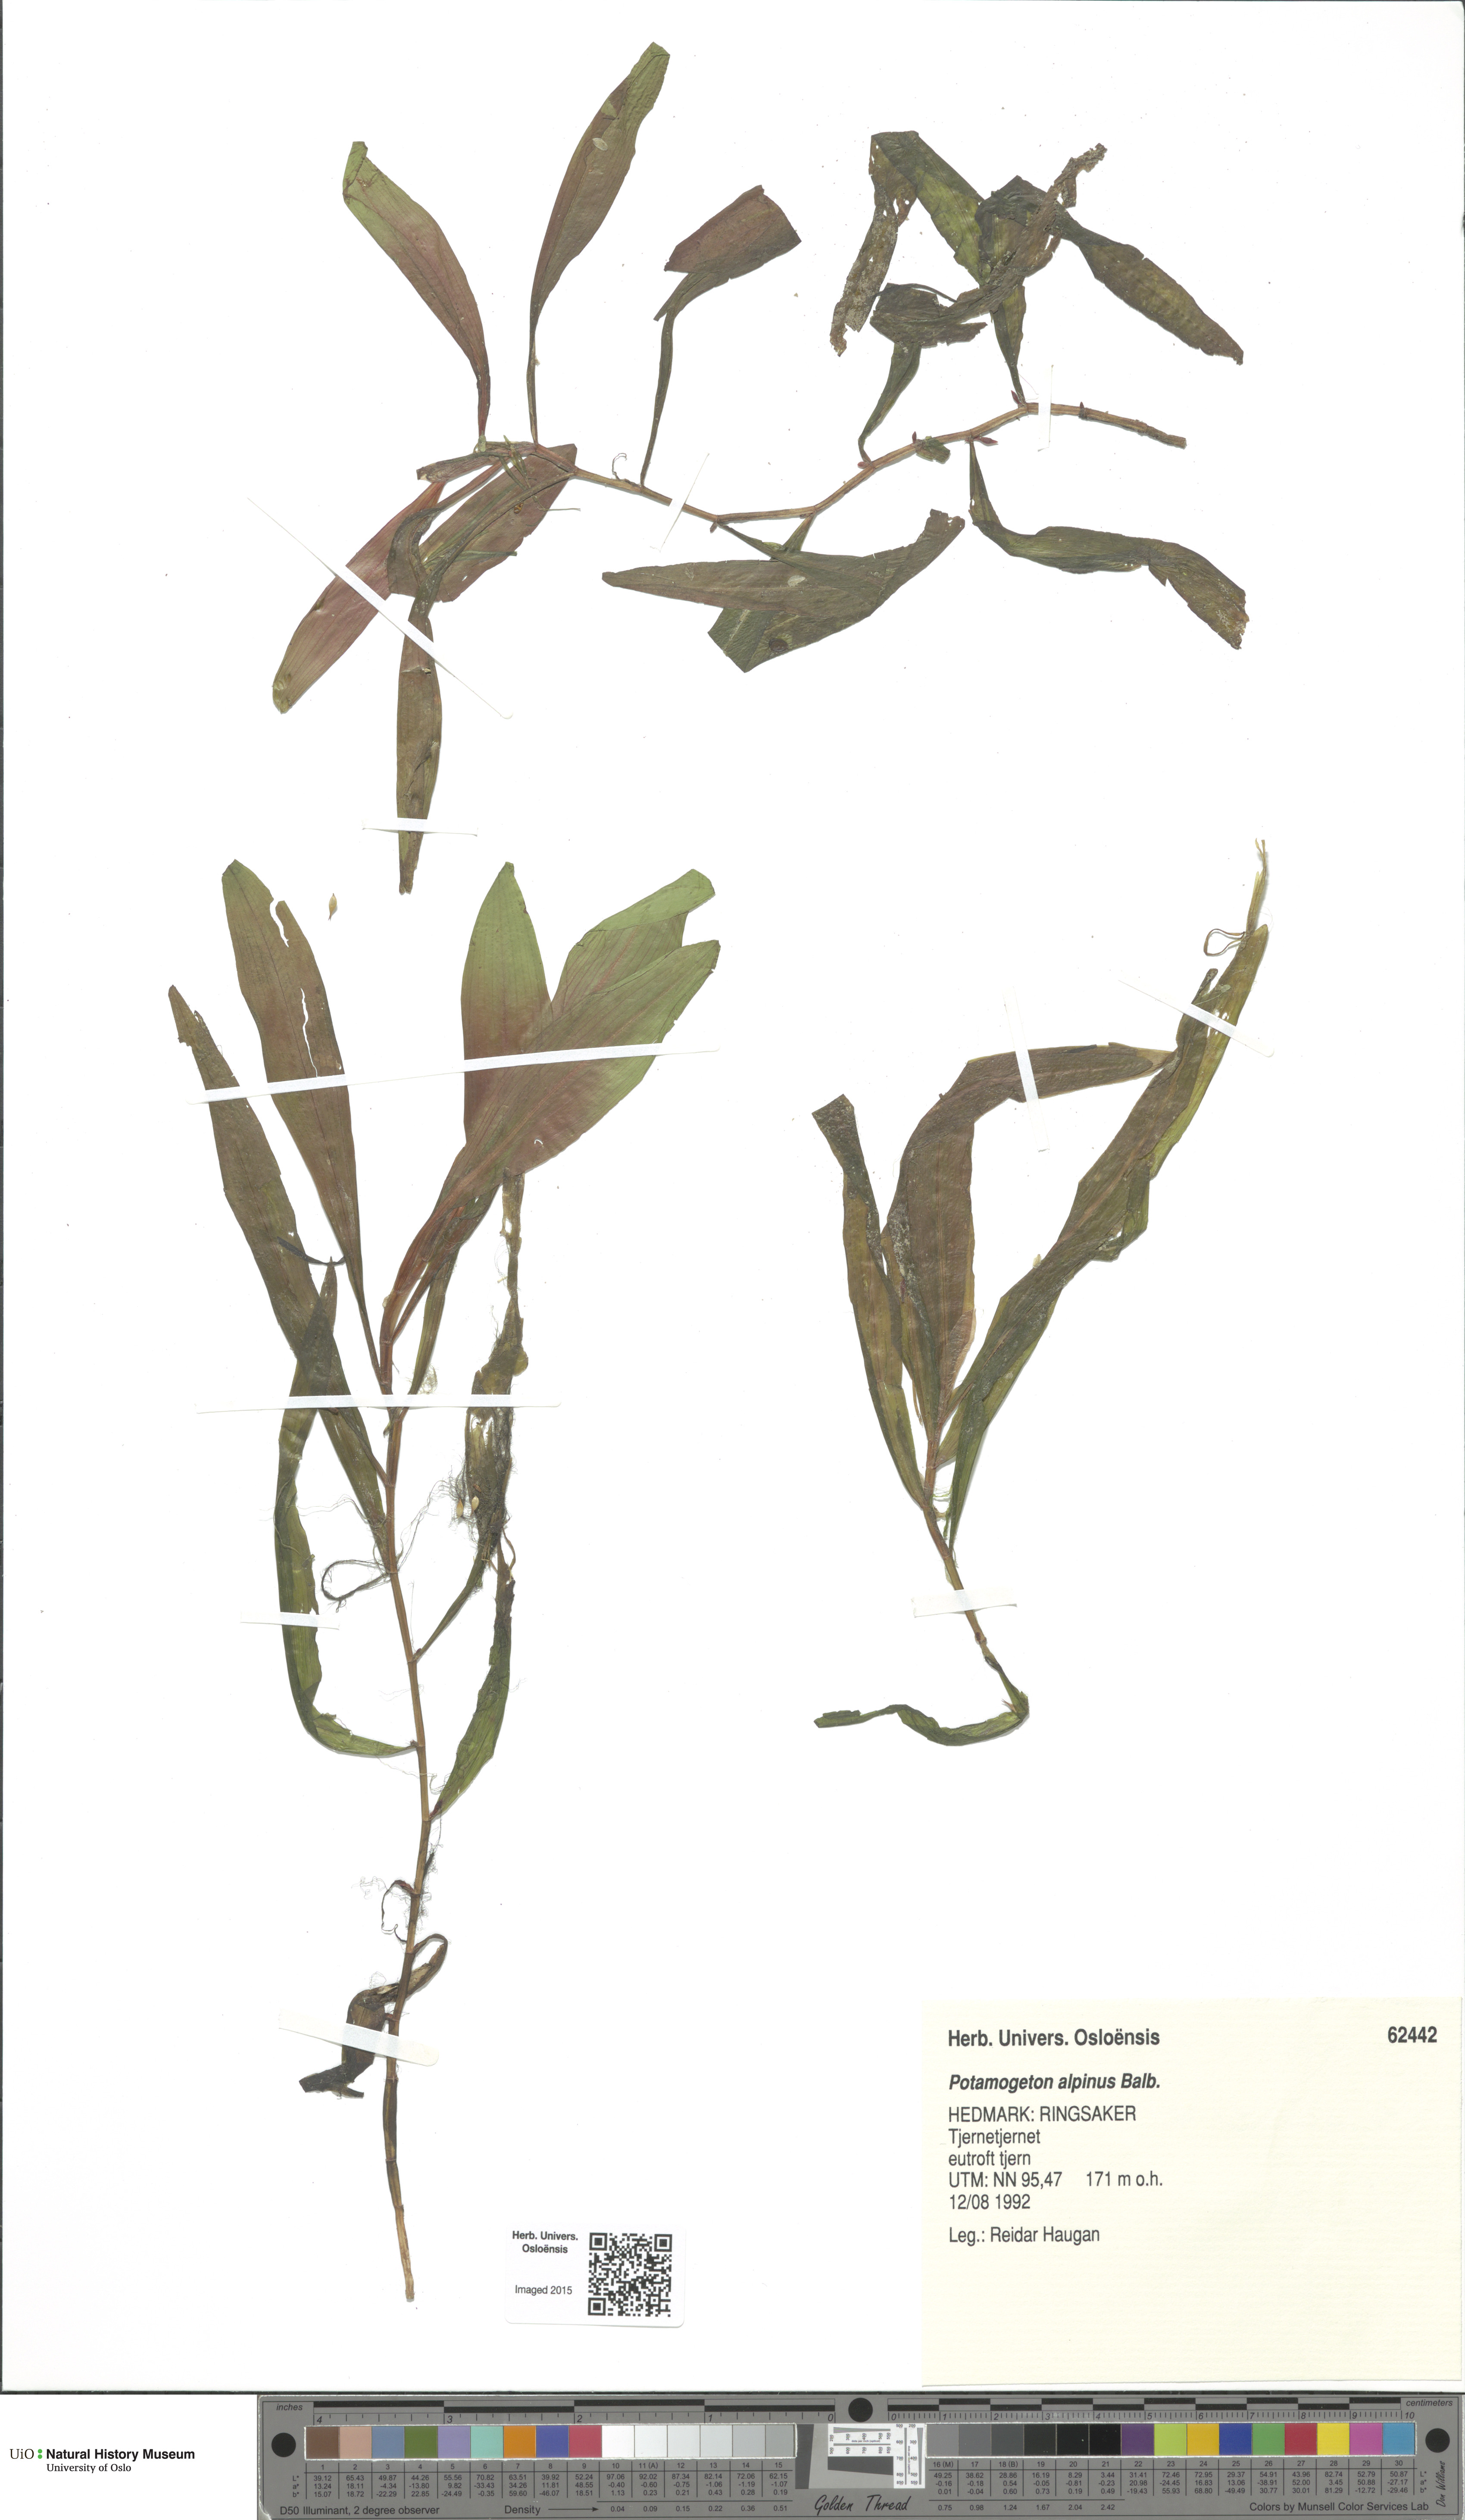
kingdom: Plantae
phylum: Tracheophyta
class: Liliopsida
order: Alismatales
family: Potamogetonaceae
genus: Potamogeton
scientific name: Potamogeton alpinus
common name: Red pondweed
